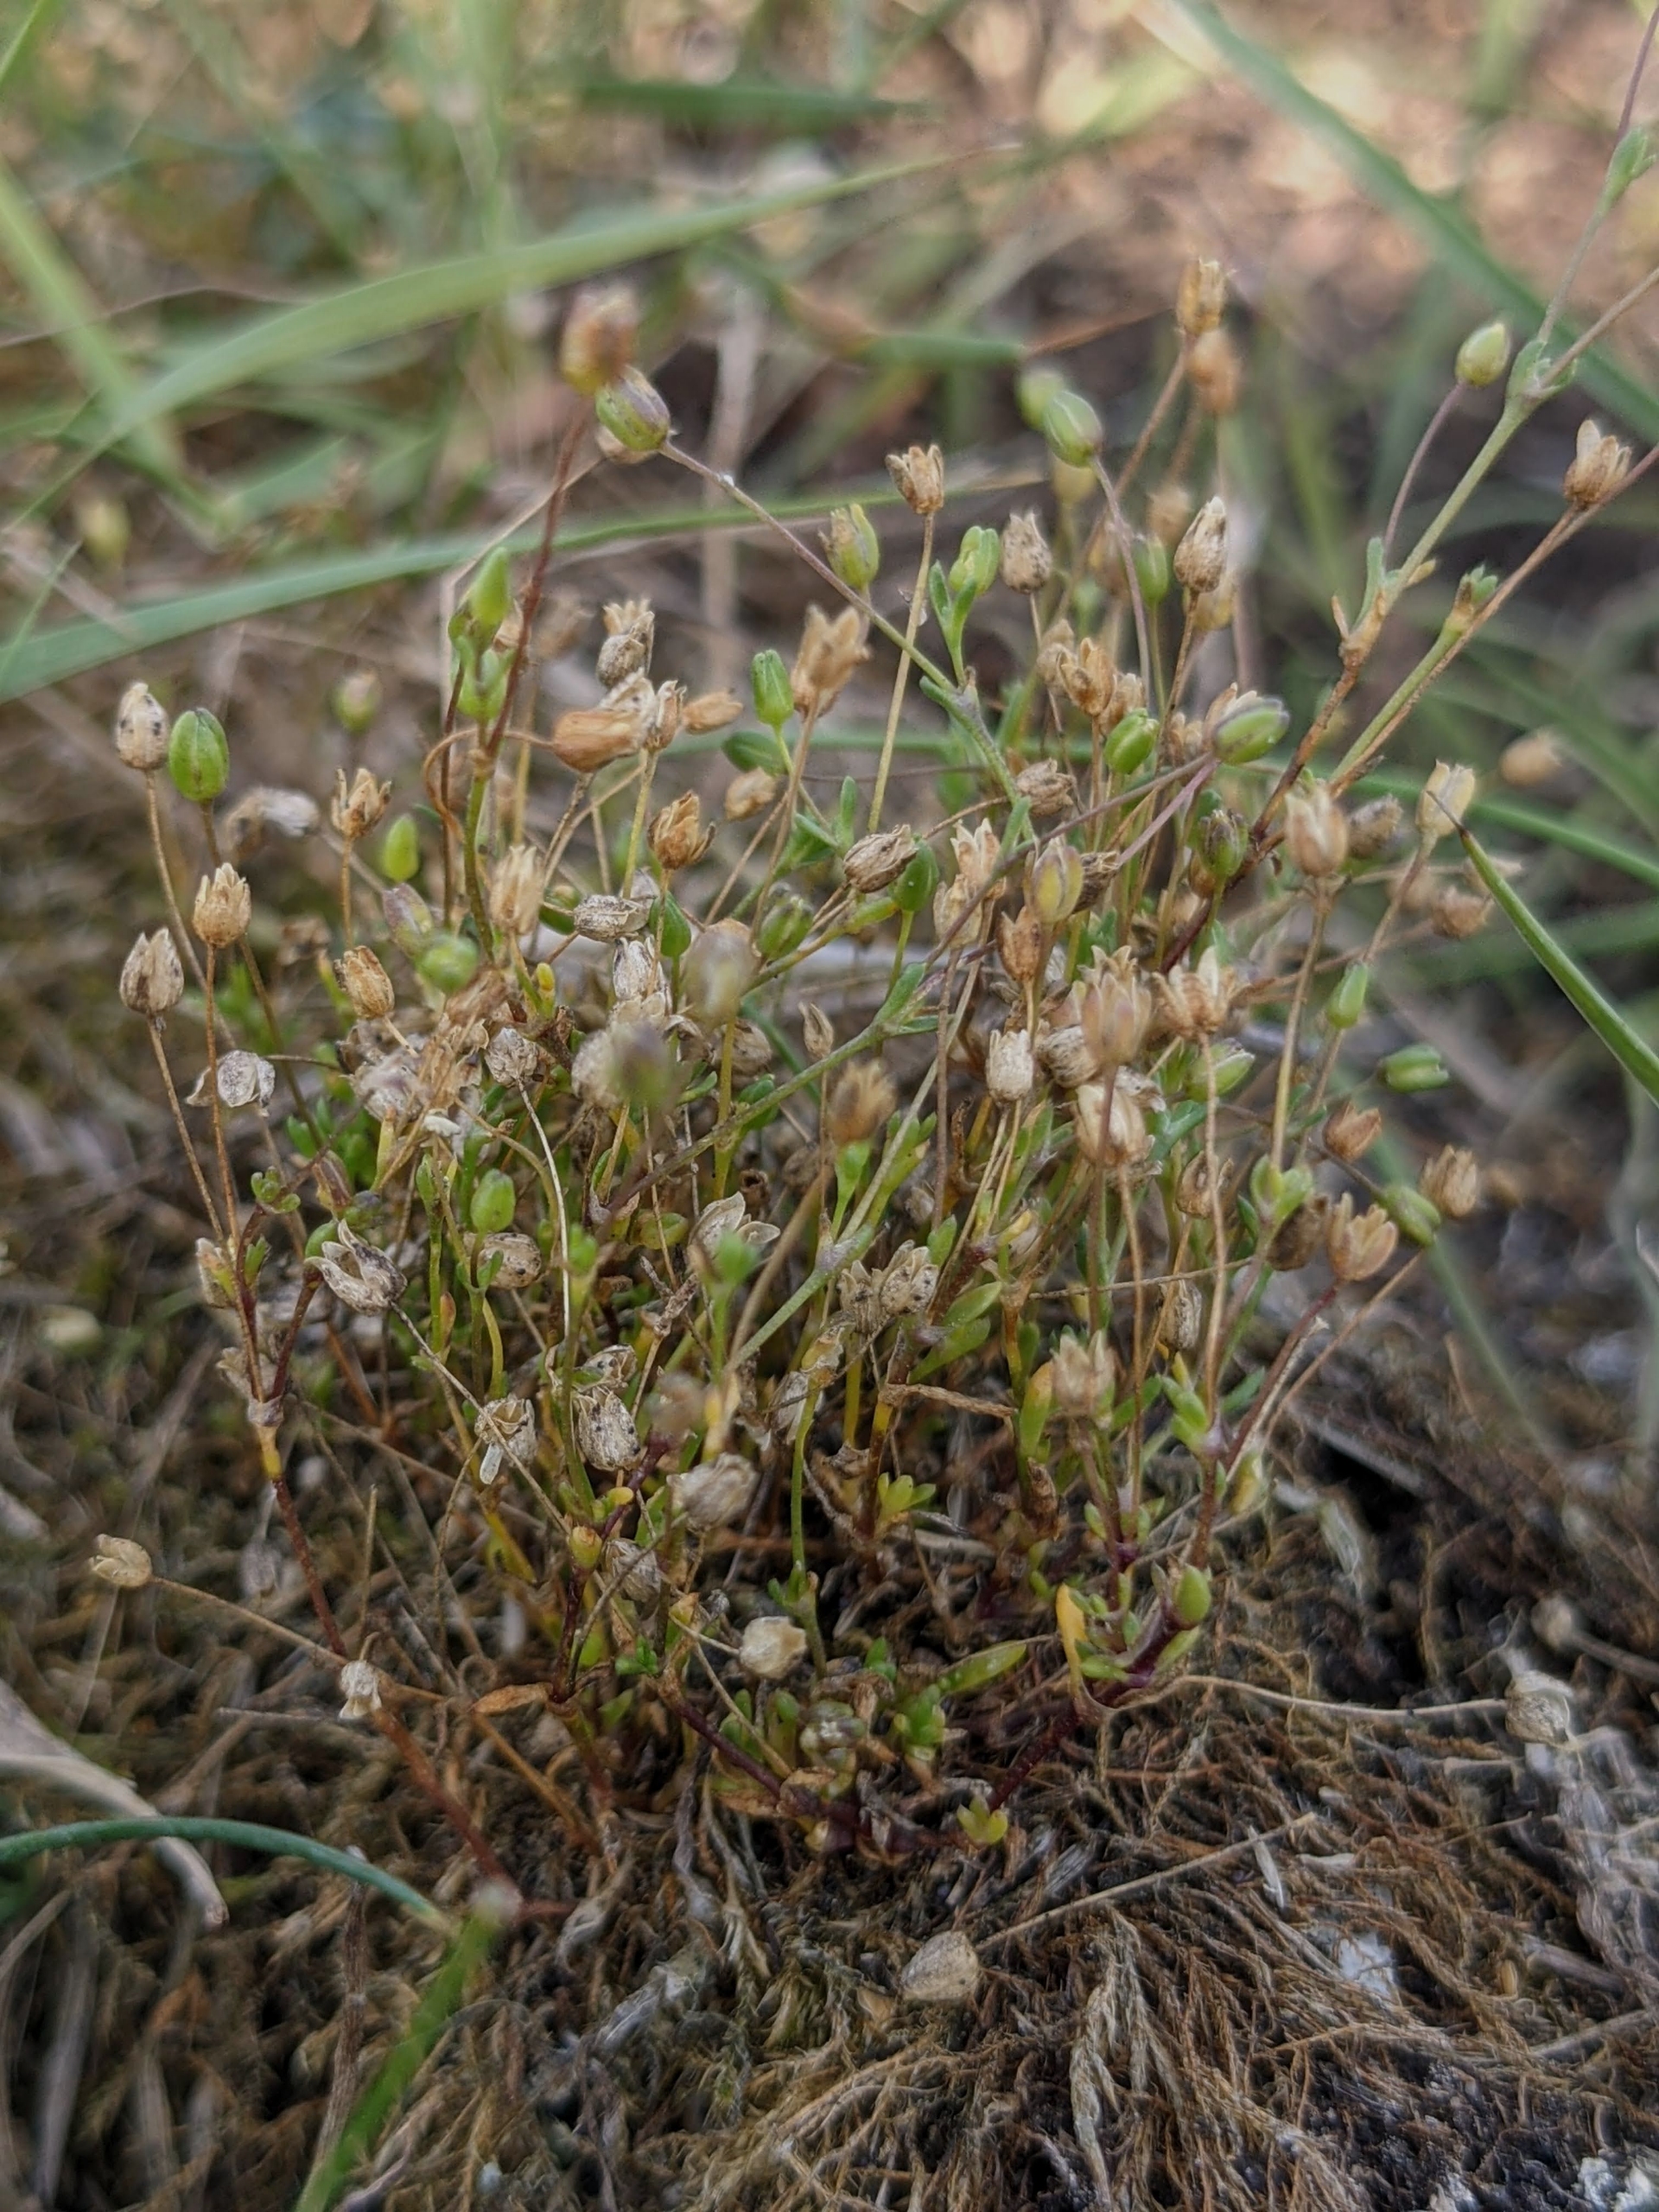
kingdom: Plantae
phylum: Tracheophyta
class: Magnoliopsida
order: Caryophyllales
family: Caryophyllaceae
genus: Sagina
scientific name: Sagina maritima
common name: Strand-firling
